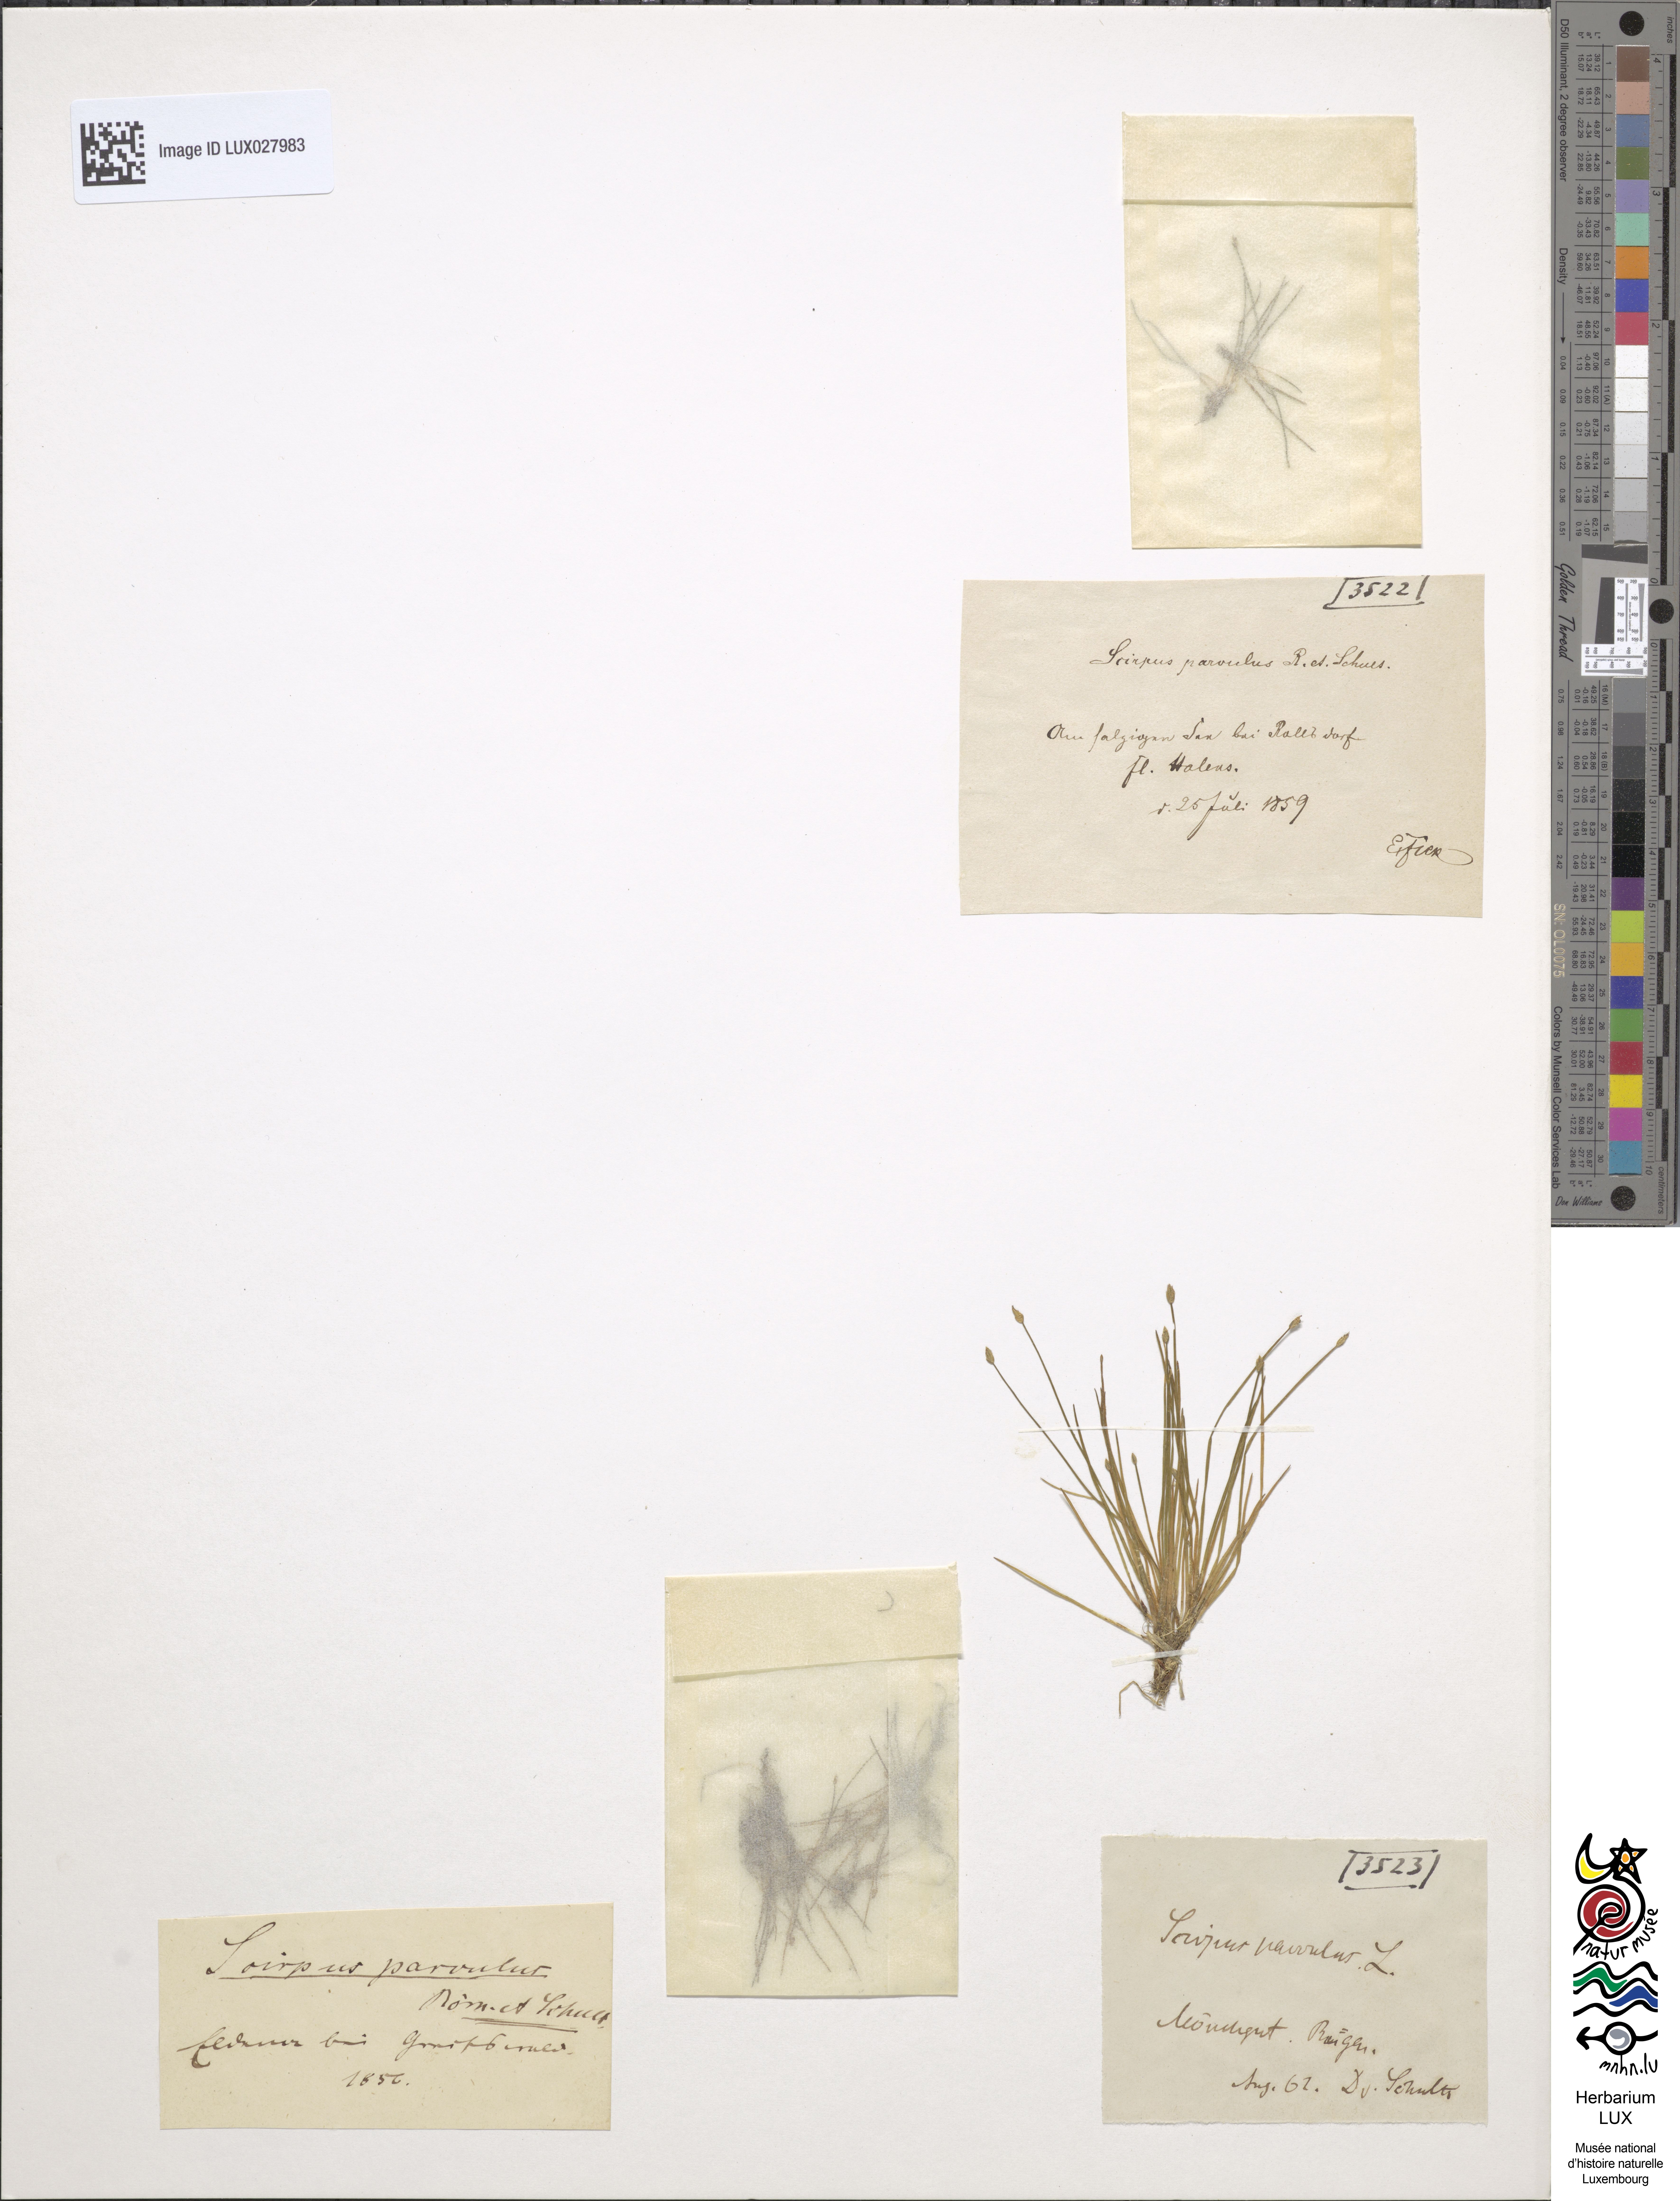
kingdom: Plantae
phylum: Tracheophyta
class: Liliopsida
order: Poales
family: Cyperaceae
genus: Eleocharis
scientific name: Eleocharis parvula
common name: Dwarf spike-rush
